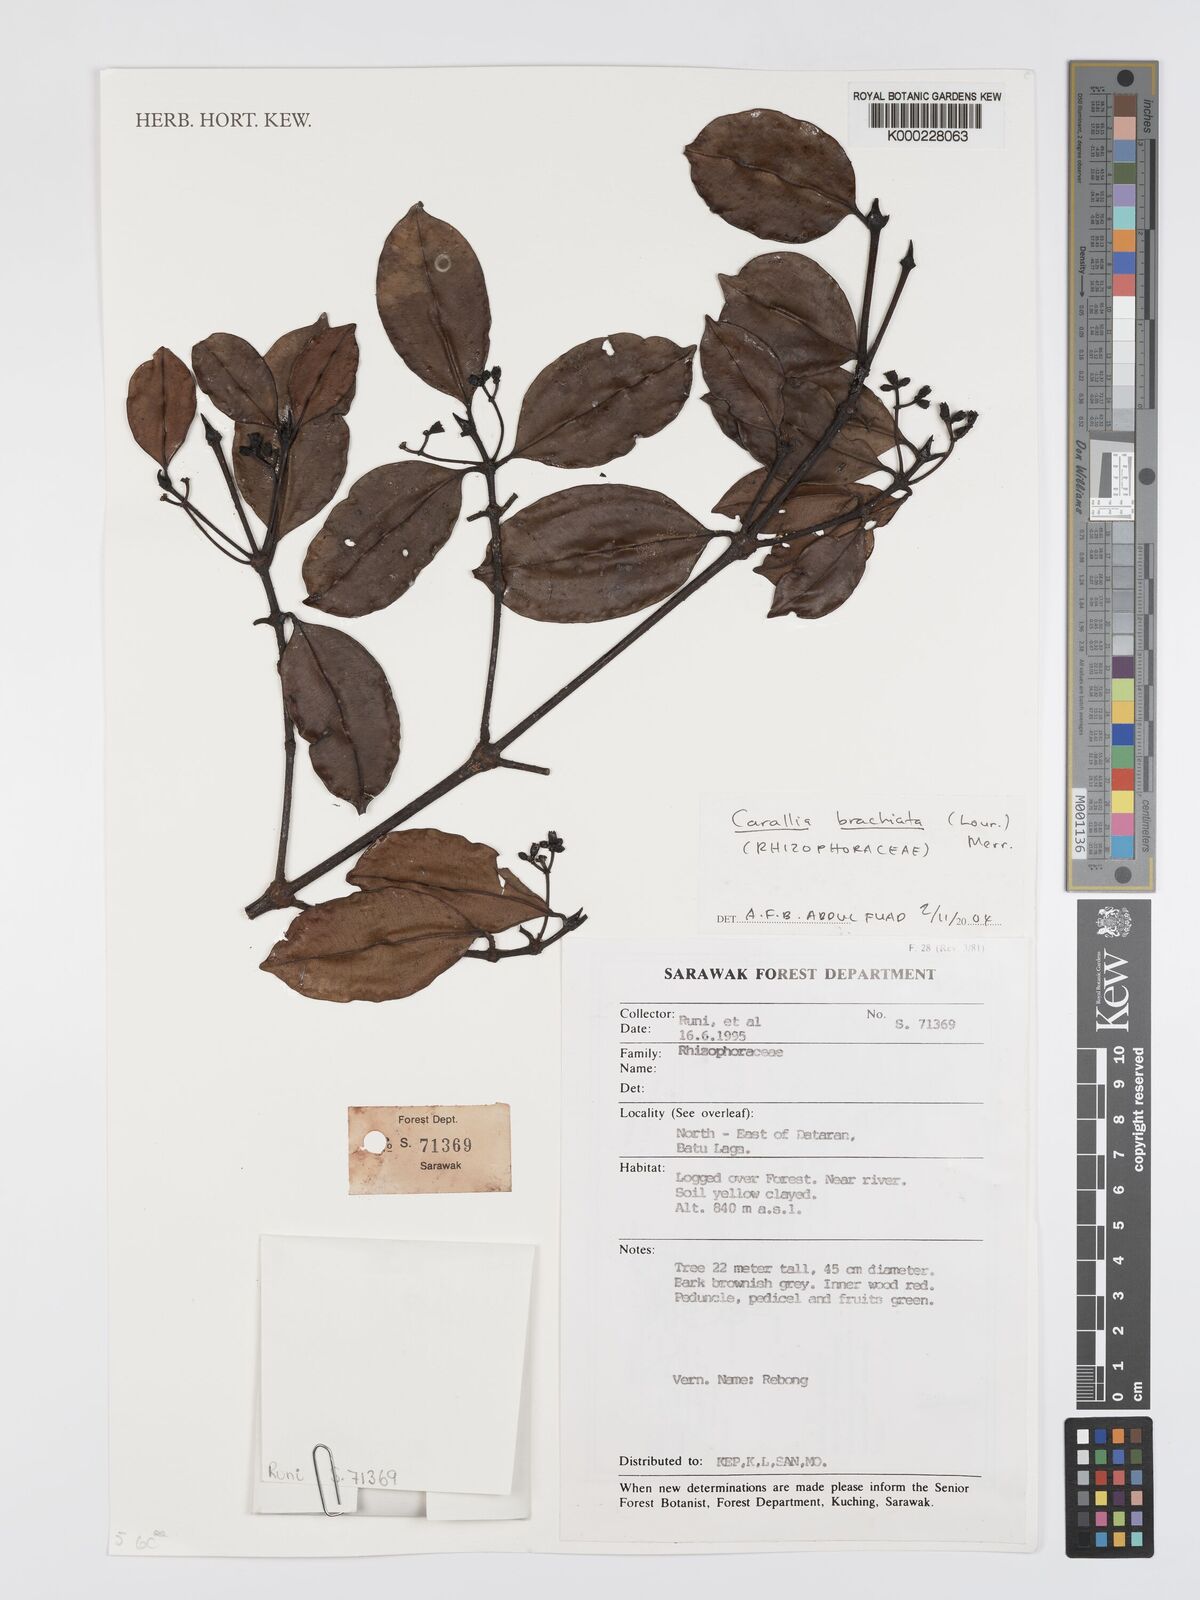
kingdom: Plantae
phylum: Tracheophyta
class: Magnoliopsida
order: Malpighiales
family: Rhizophoraceae
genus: Carallia
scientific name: Carallia brachiata
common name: Carallawood
